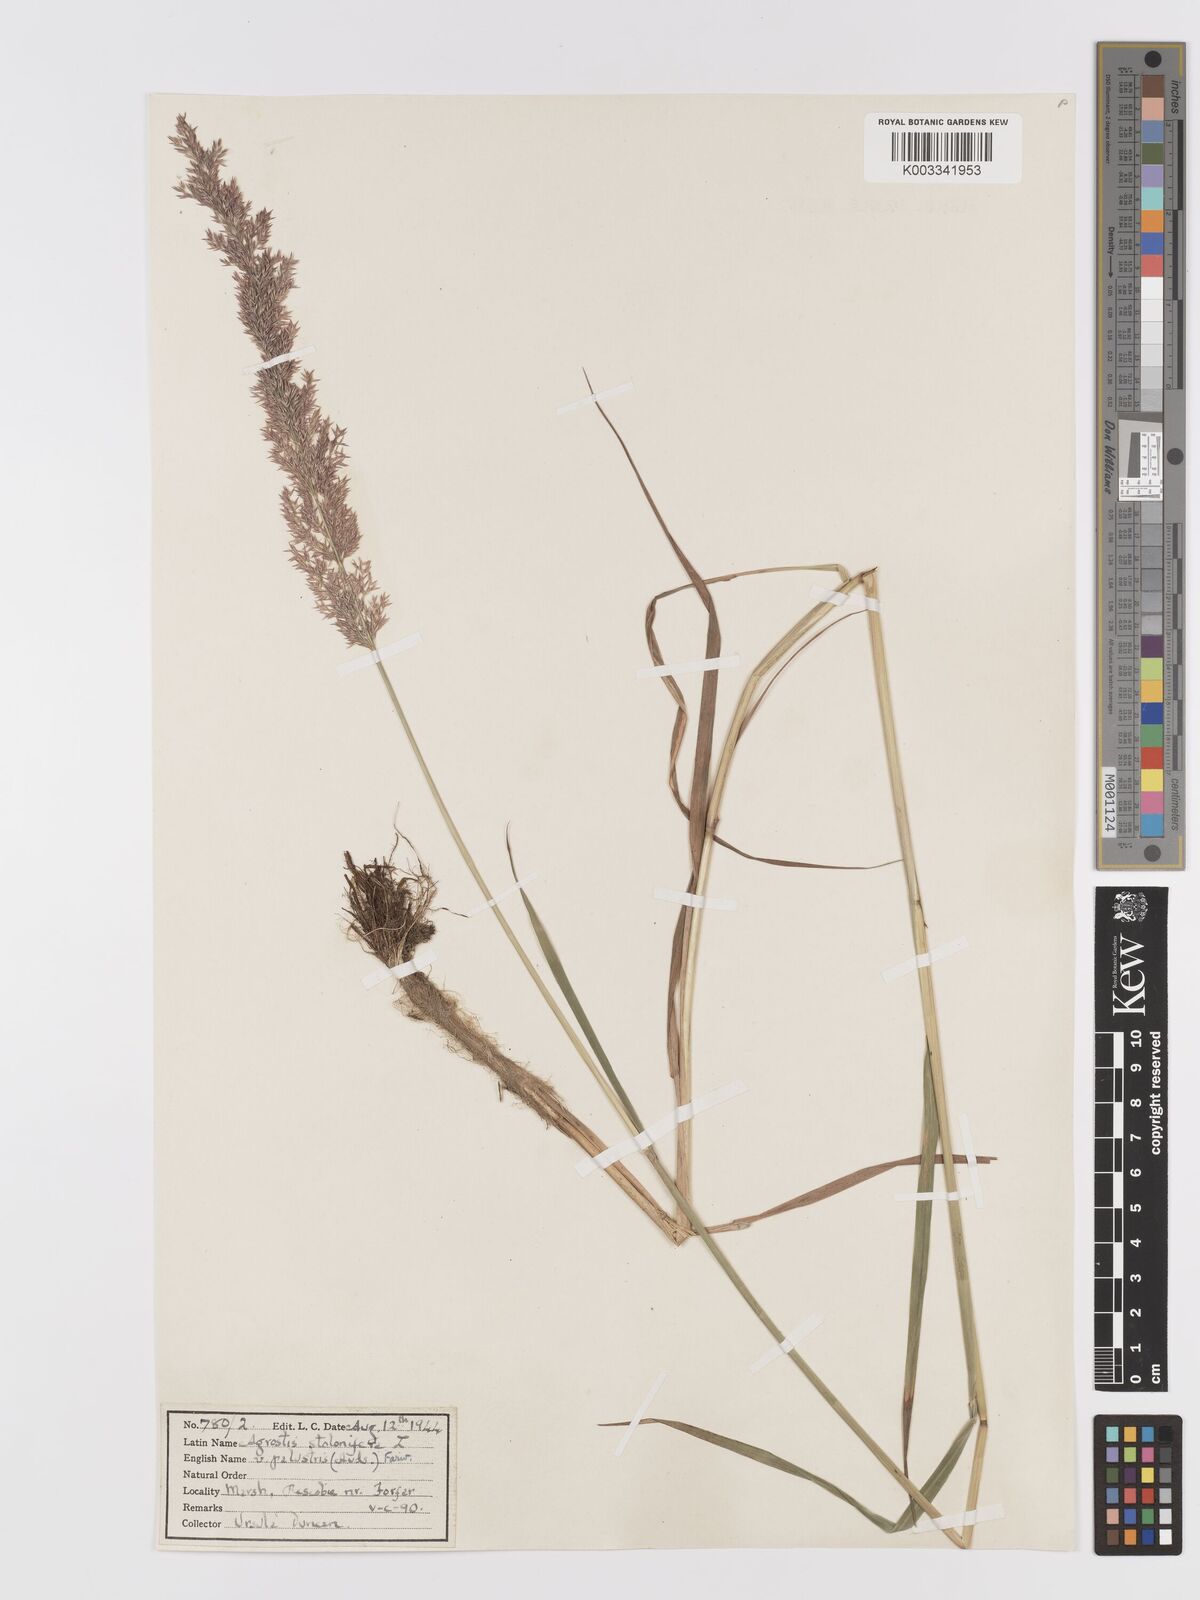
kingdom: Plantae
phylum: Tracheophyta
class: Liliopsida
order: Poales
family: Poaceae
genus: Agrostis
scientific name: Agrostis stolonifera
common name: Creeping bentgrass
